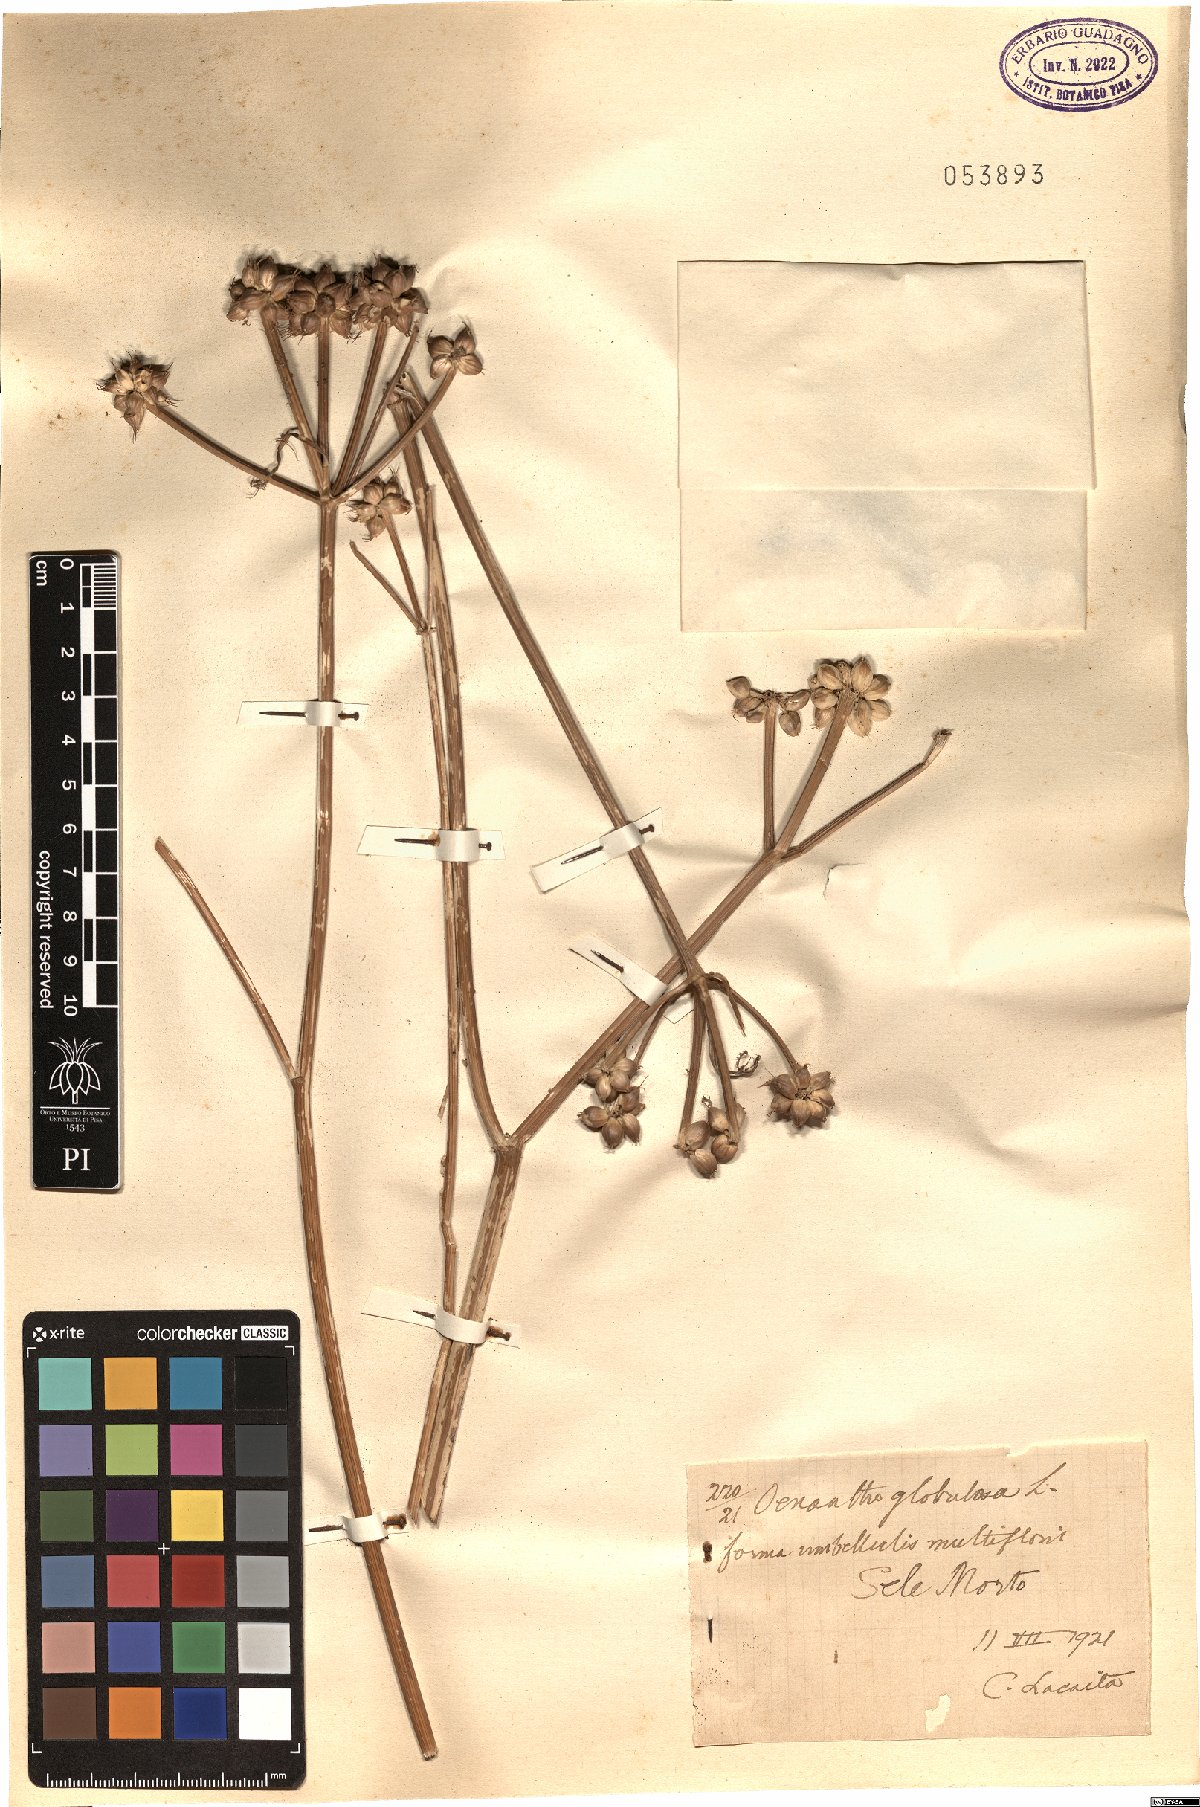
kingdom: Plantae
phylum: Tracheophyta
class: Magnoliopsida
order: Apiales
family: Apiaceae
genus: Oenanthe
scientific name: Oenanthe globulosa
